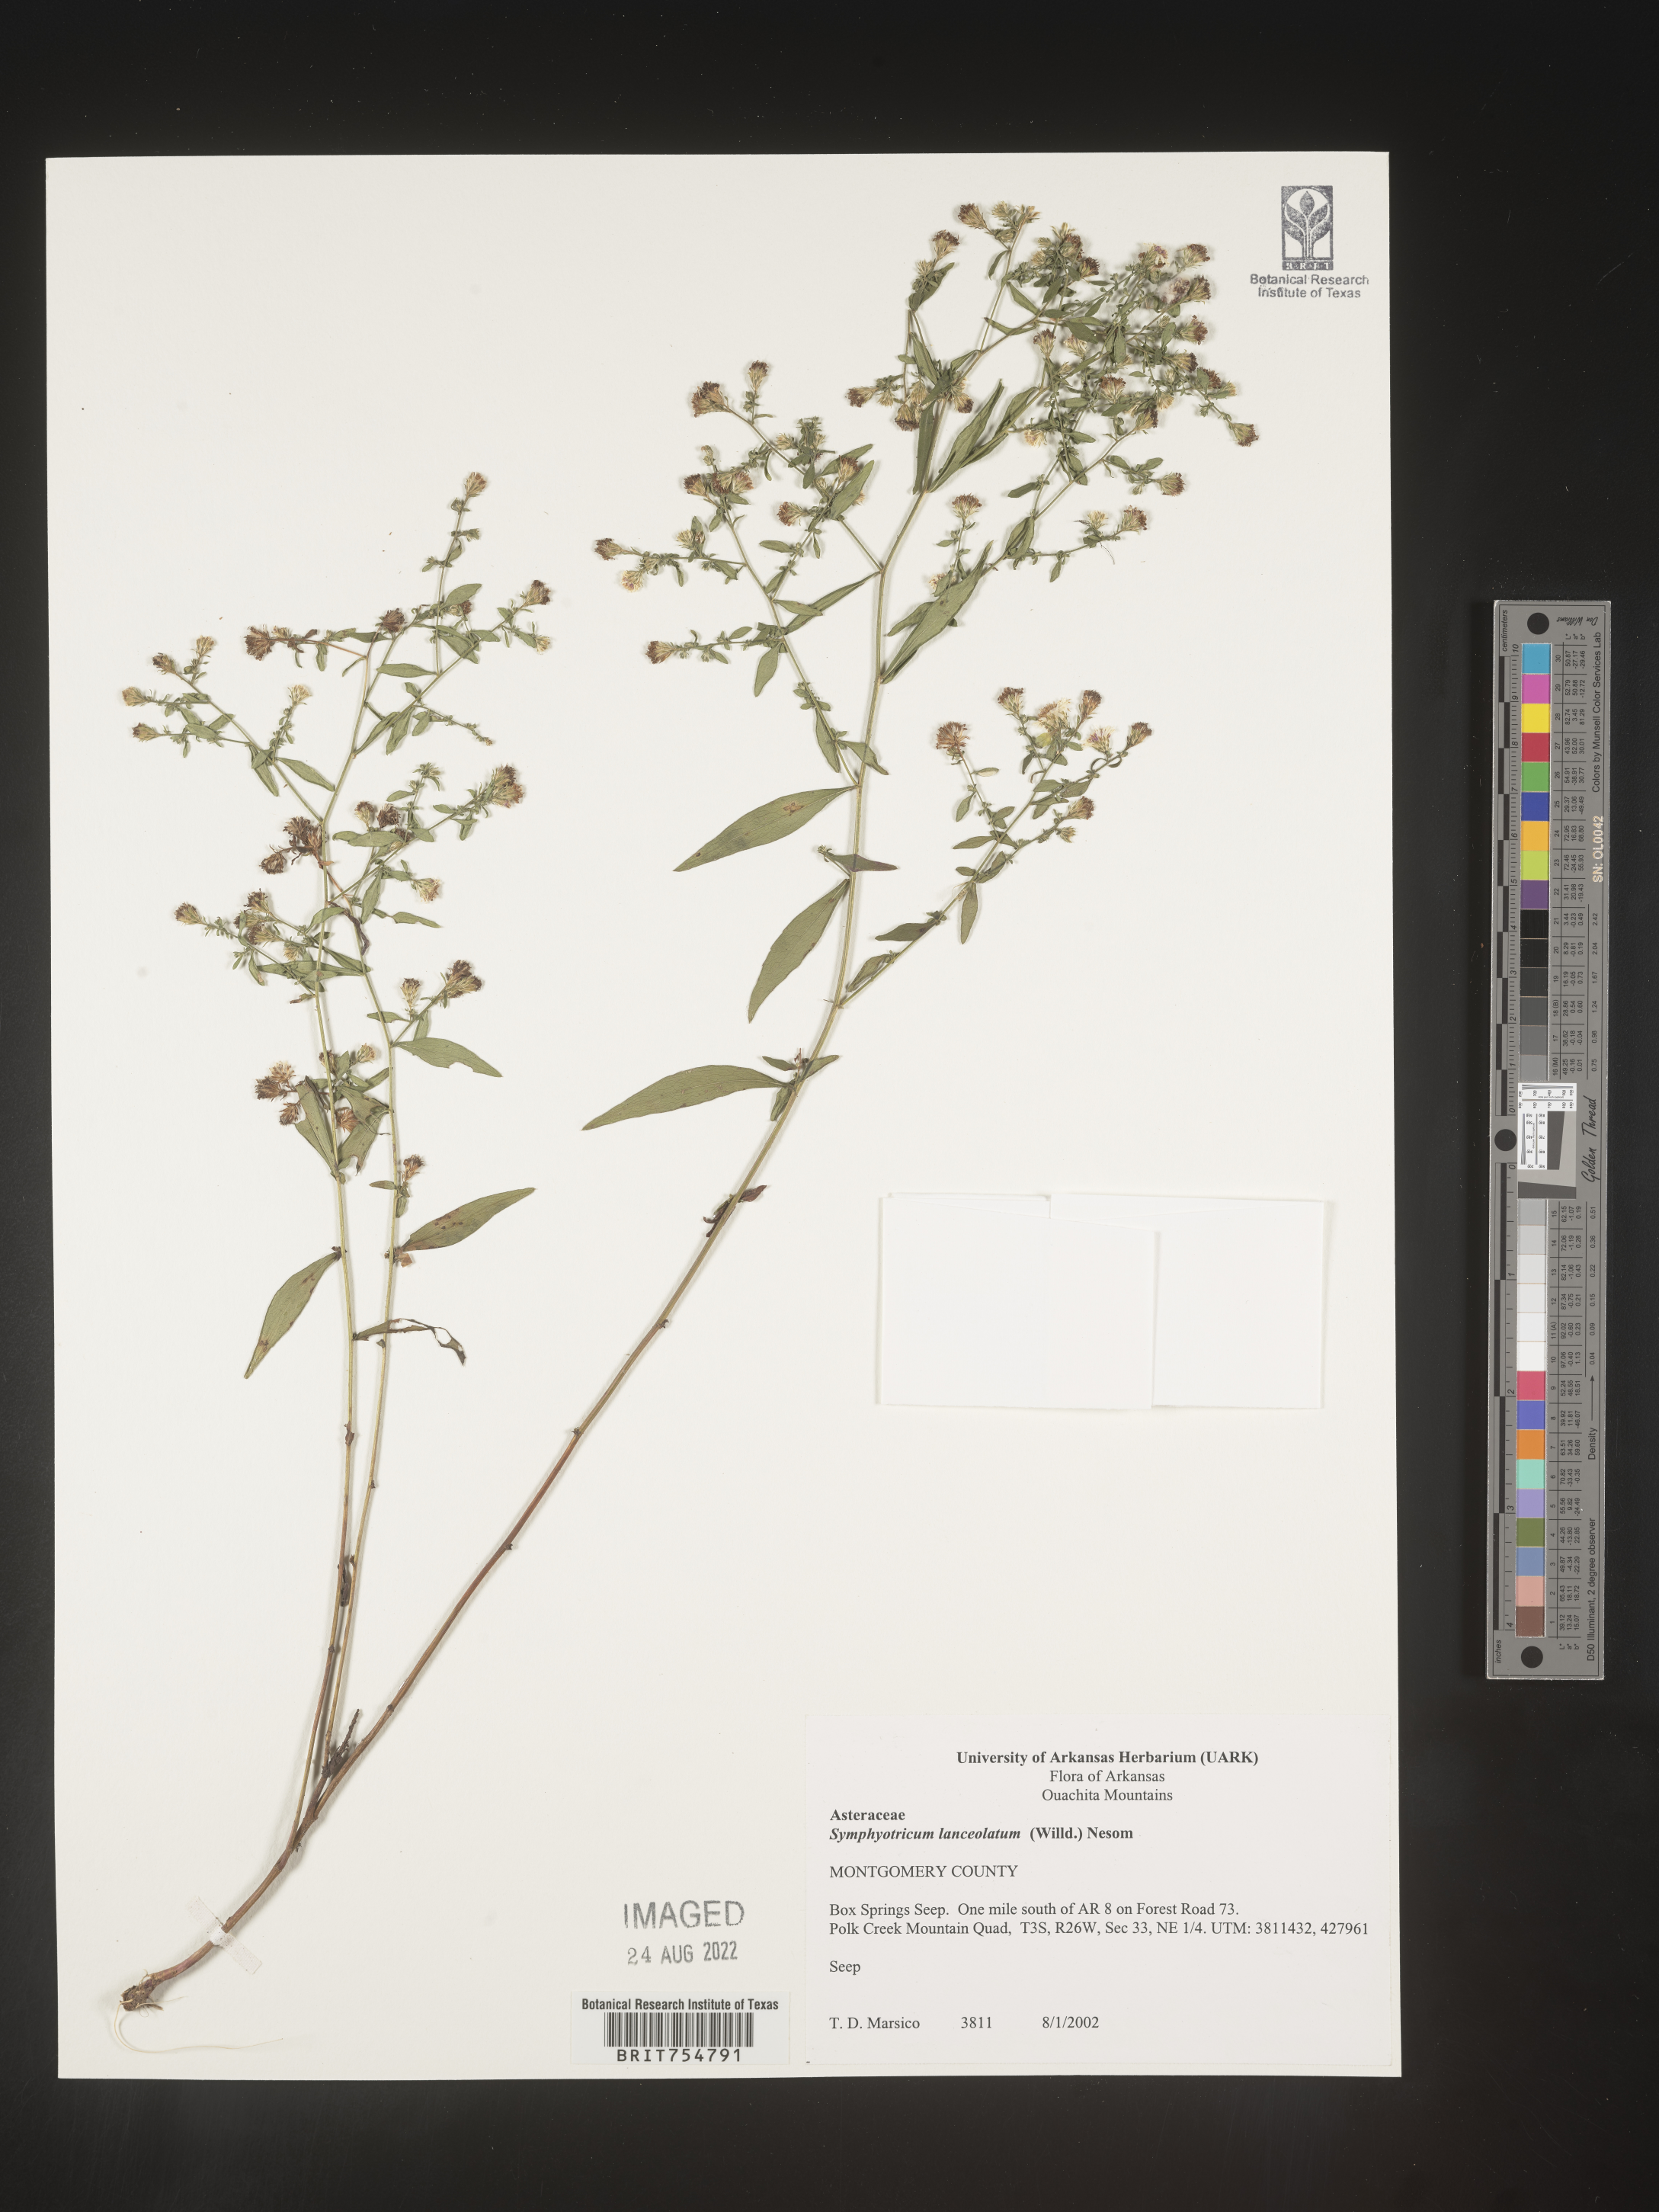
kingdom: Plantae
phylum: Tracheophyta
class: Magnoliopsida
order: Asterales
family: Asteraceae
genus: Symphyotrichum
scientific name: Symphyotrichum
